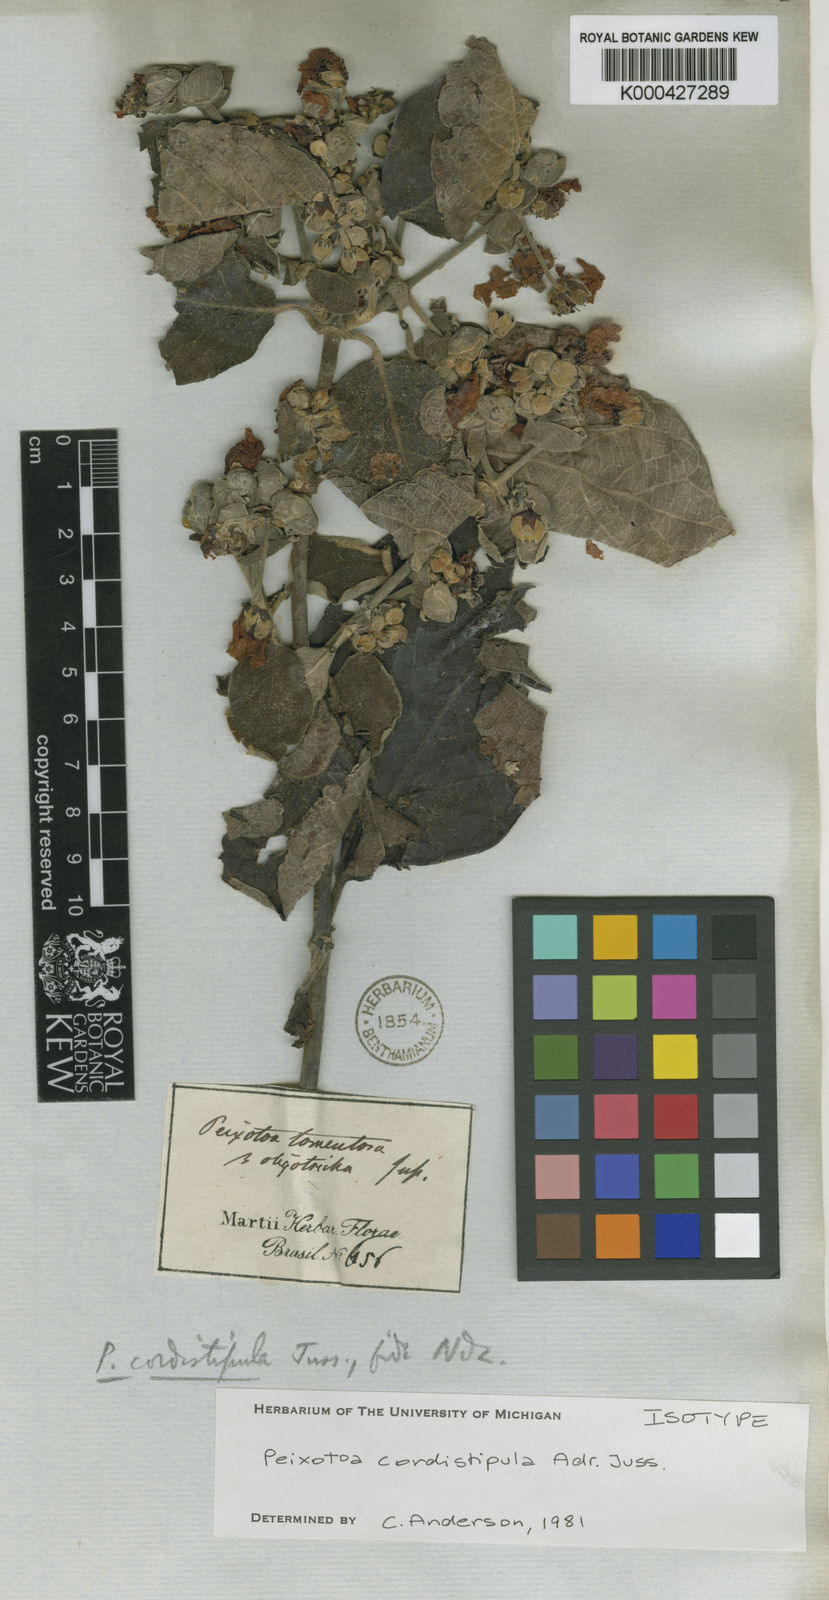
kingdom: Plantae
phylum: Tracheophyta
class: Magnoliopsida
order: Malpighiales
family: Malpighiaceae
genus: Peixotoa
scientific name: Peixotoa cordistipula
